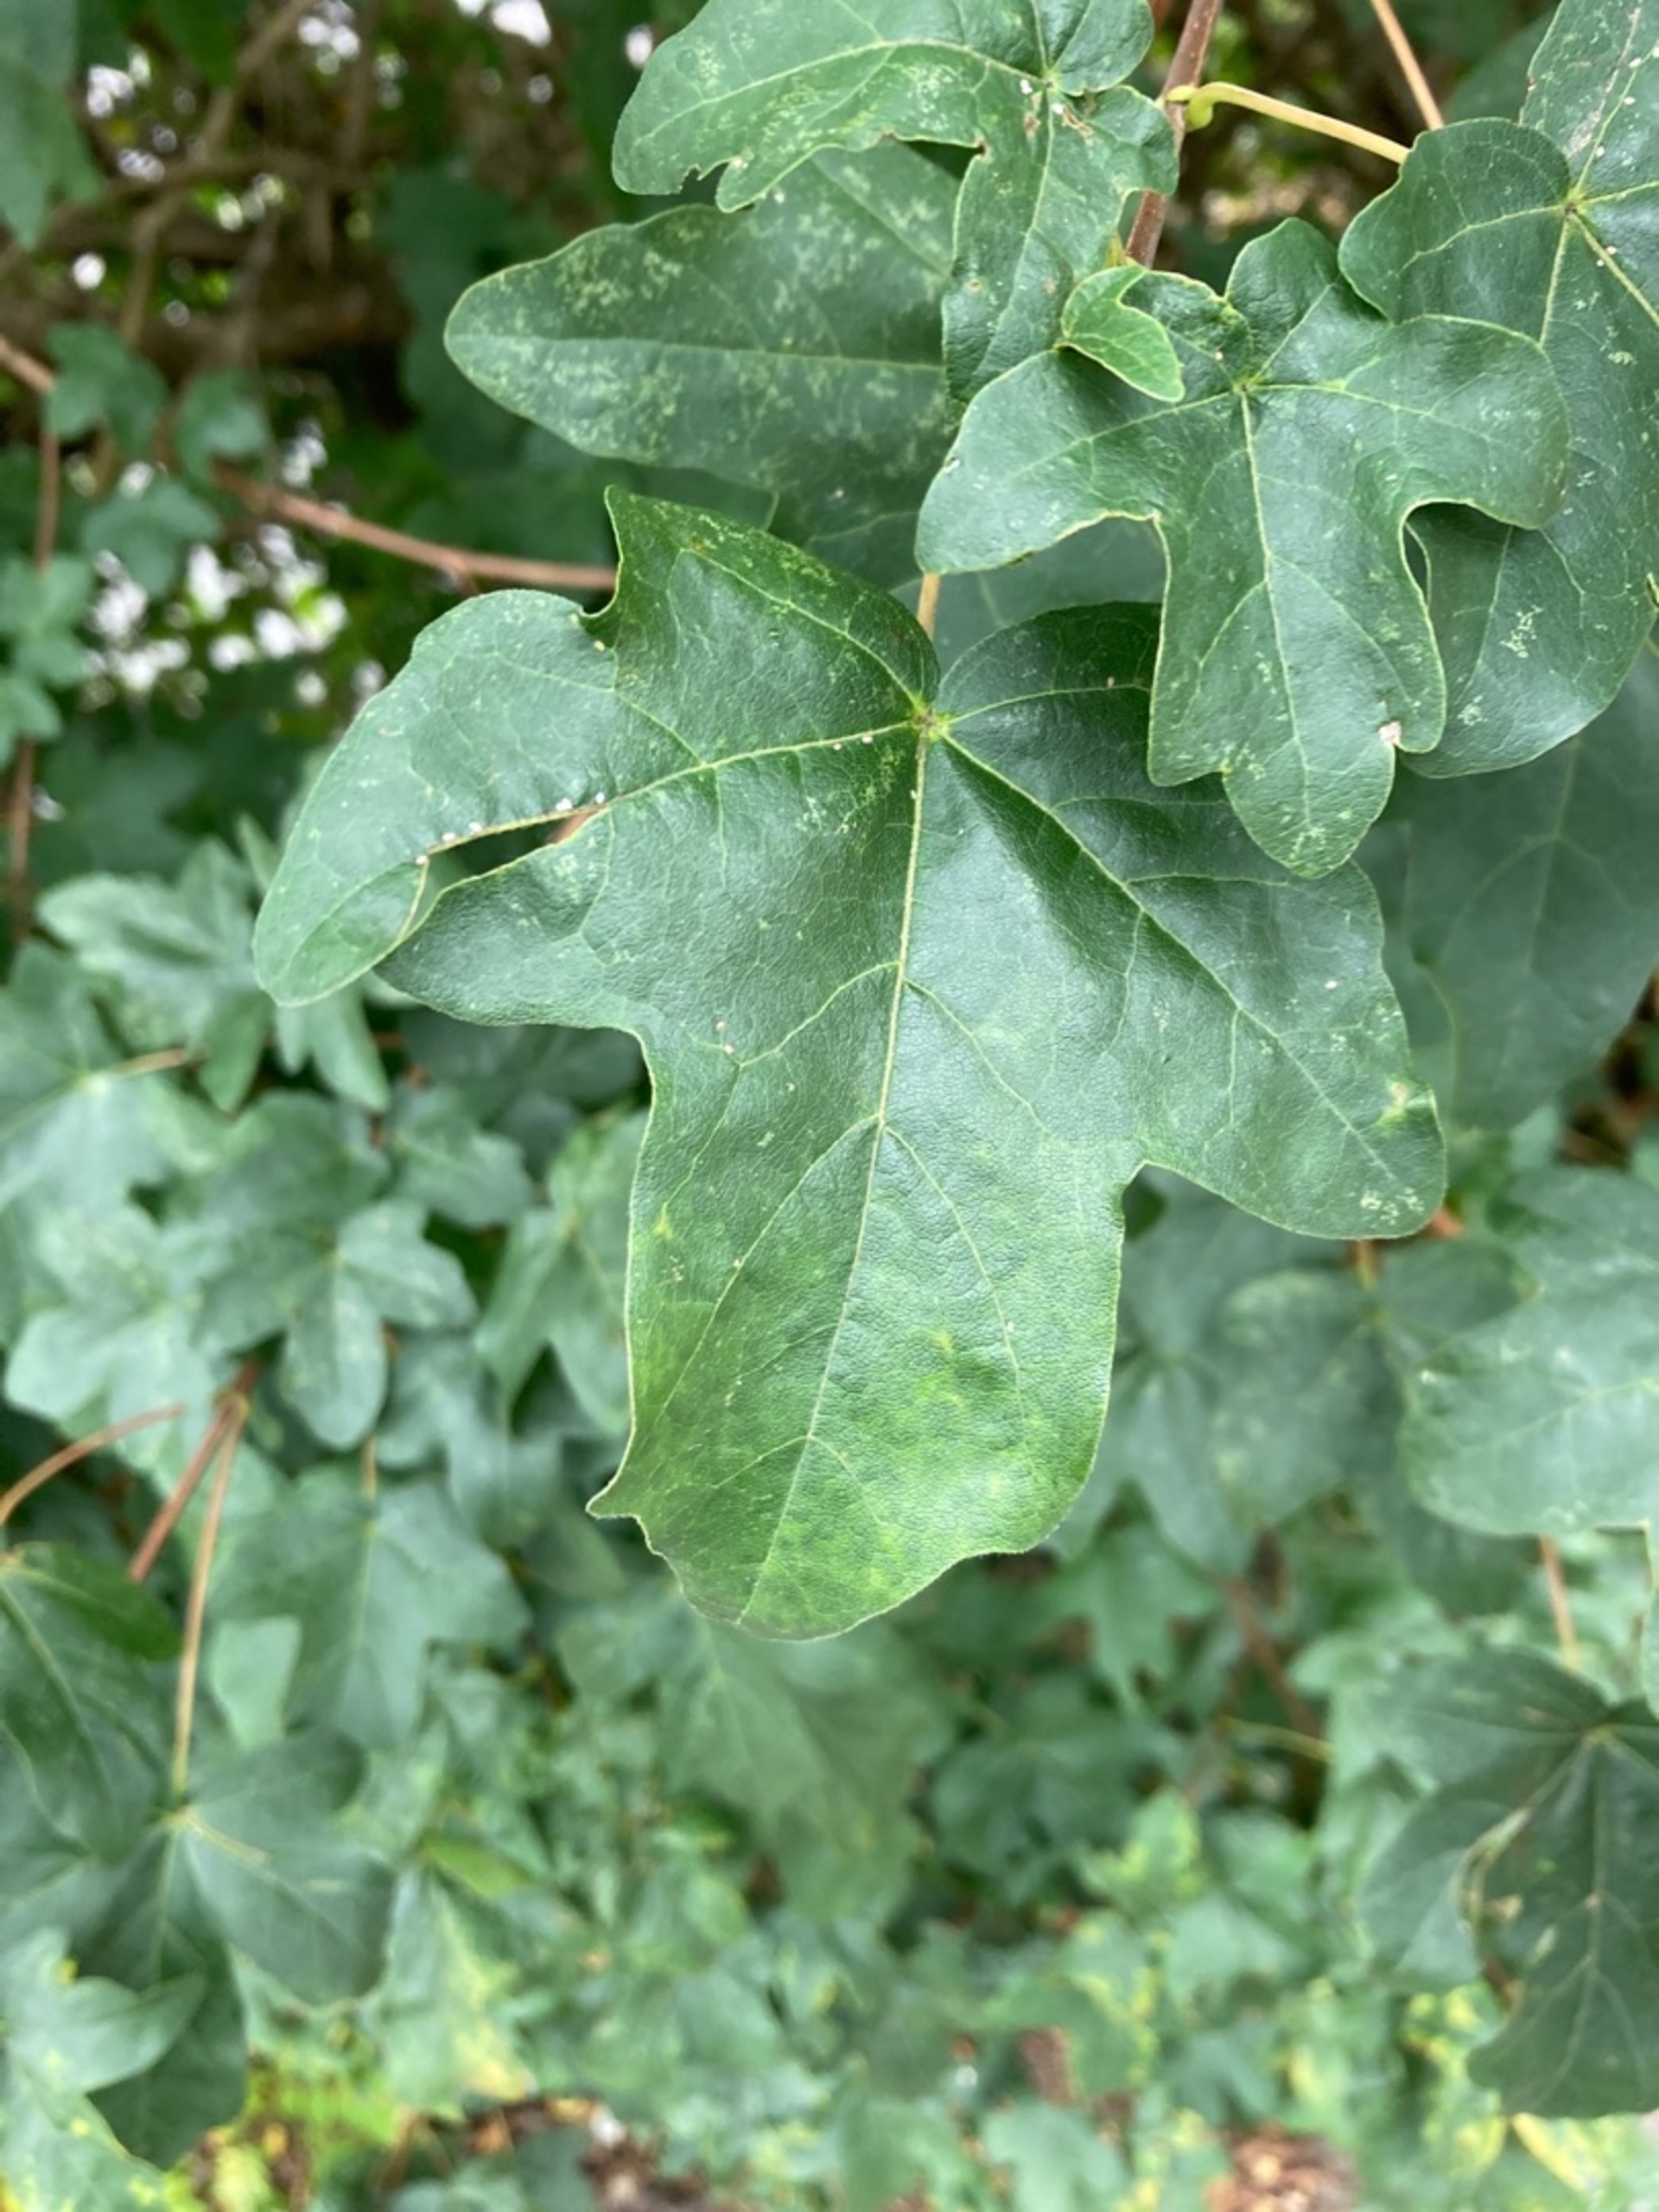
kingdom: Plantae
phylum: Tracheophyta
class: Magnoliopsida
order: Sapindales
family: Sapindaceae
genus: Acer
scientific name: Acer campestre
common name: Navr
